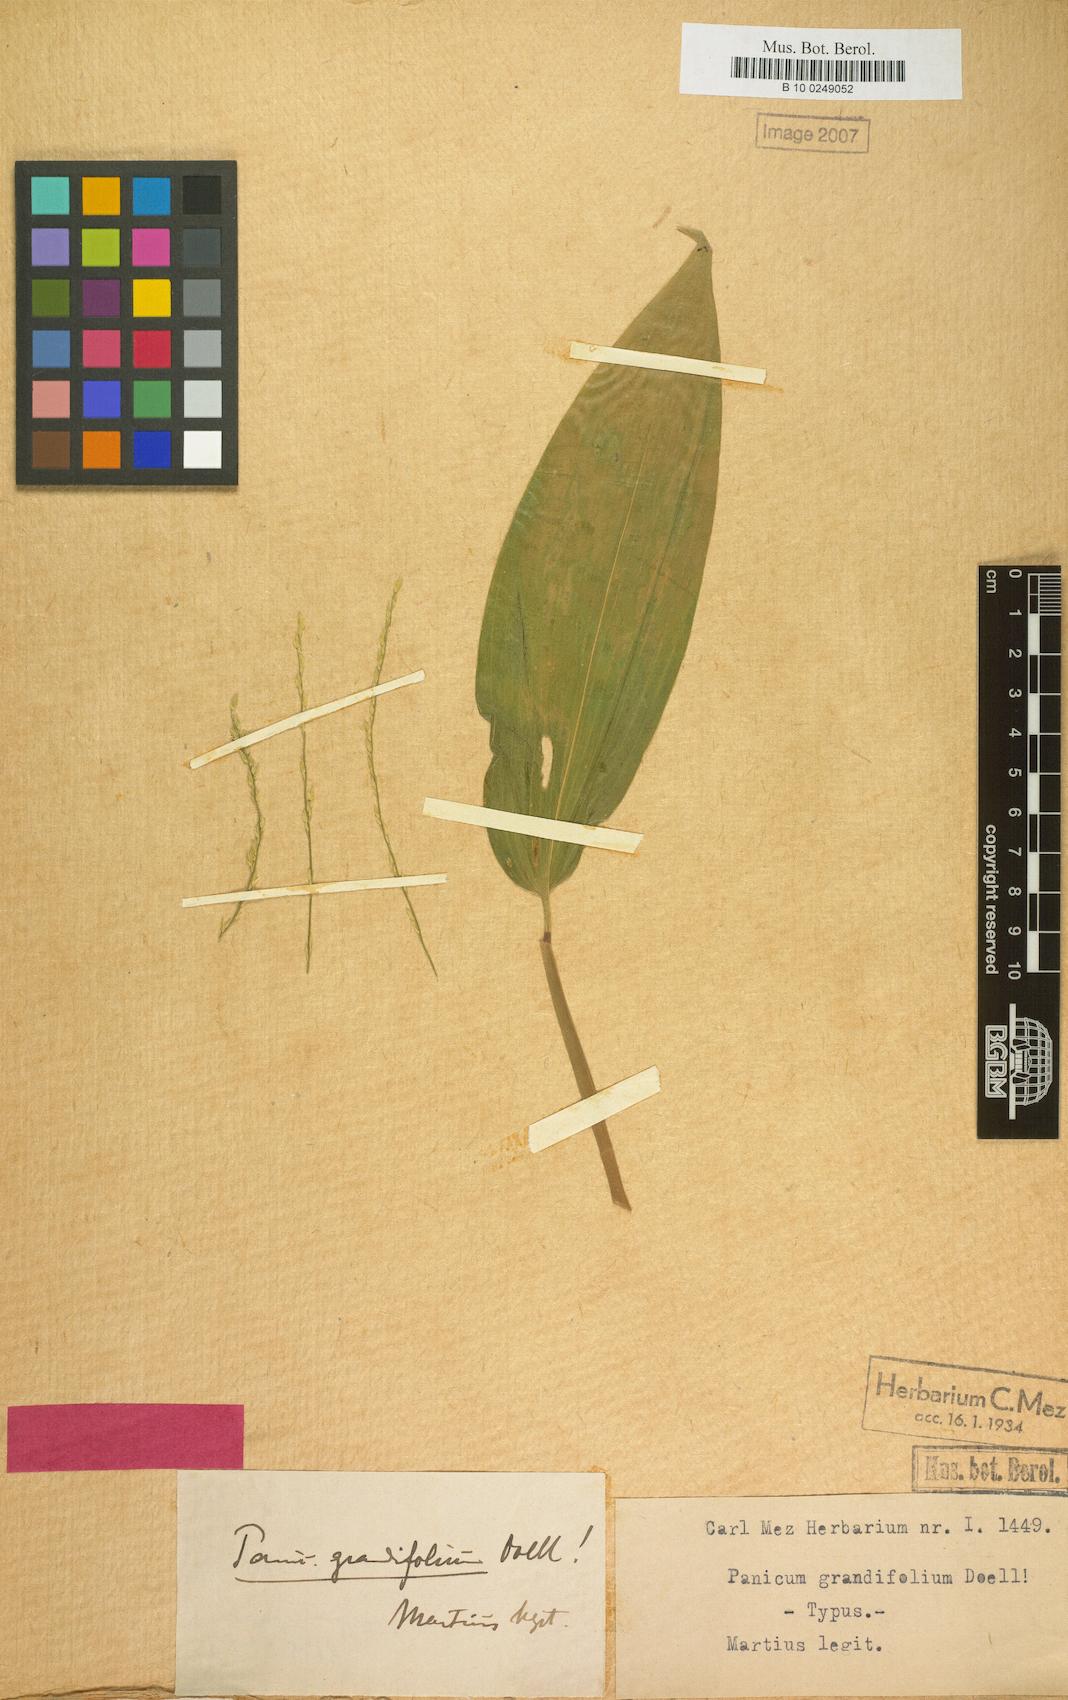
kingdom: Plantae
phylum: Tracheophyta
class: Liliopsida
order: Poales
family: Poaceae
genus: Oedochloa
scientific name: Oedochloa grandifolia
